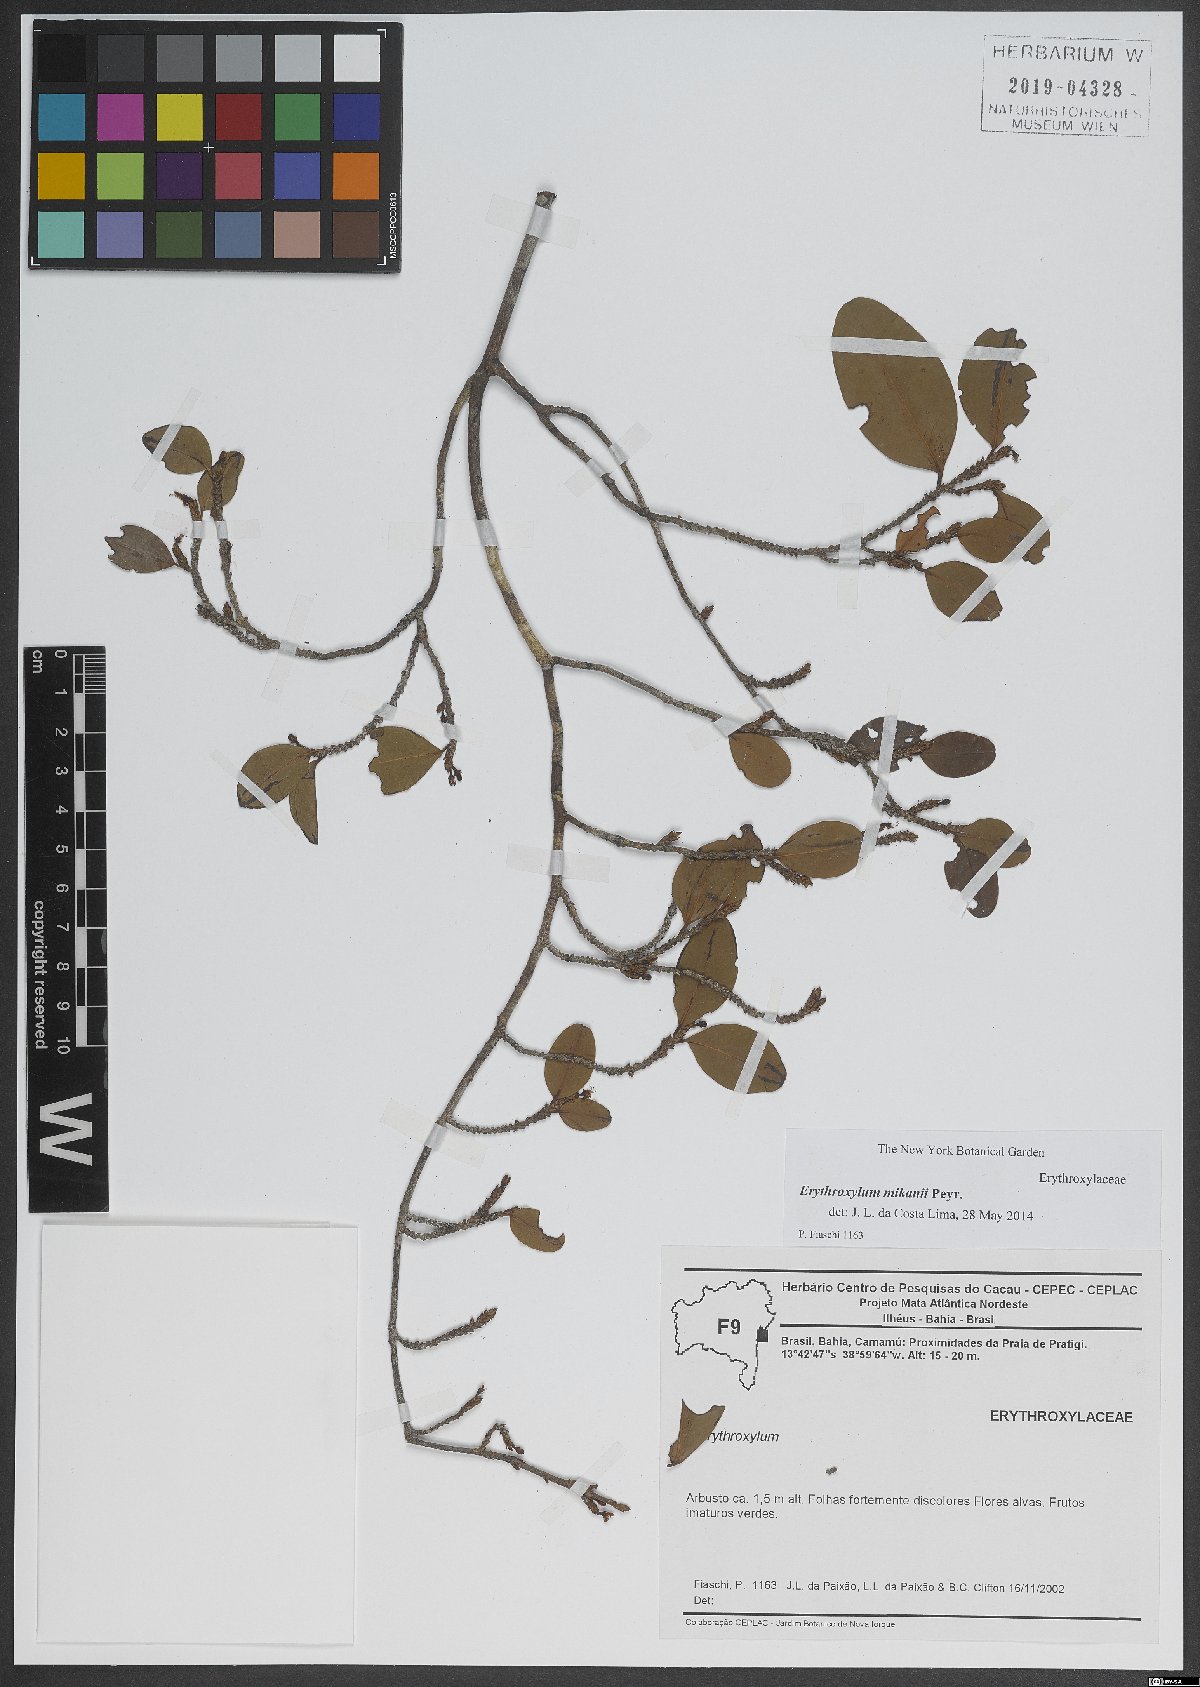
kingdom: Plantae
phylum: Tracheophyta
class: Magnoliopsida
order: Malpighiales
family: Erythroxylaceae
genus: Erythroxylum
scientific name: Erythroxylum mikanii
